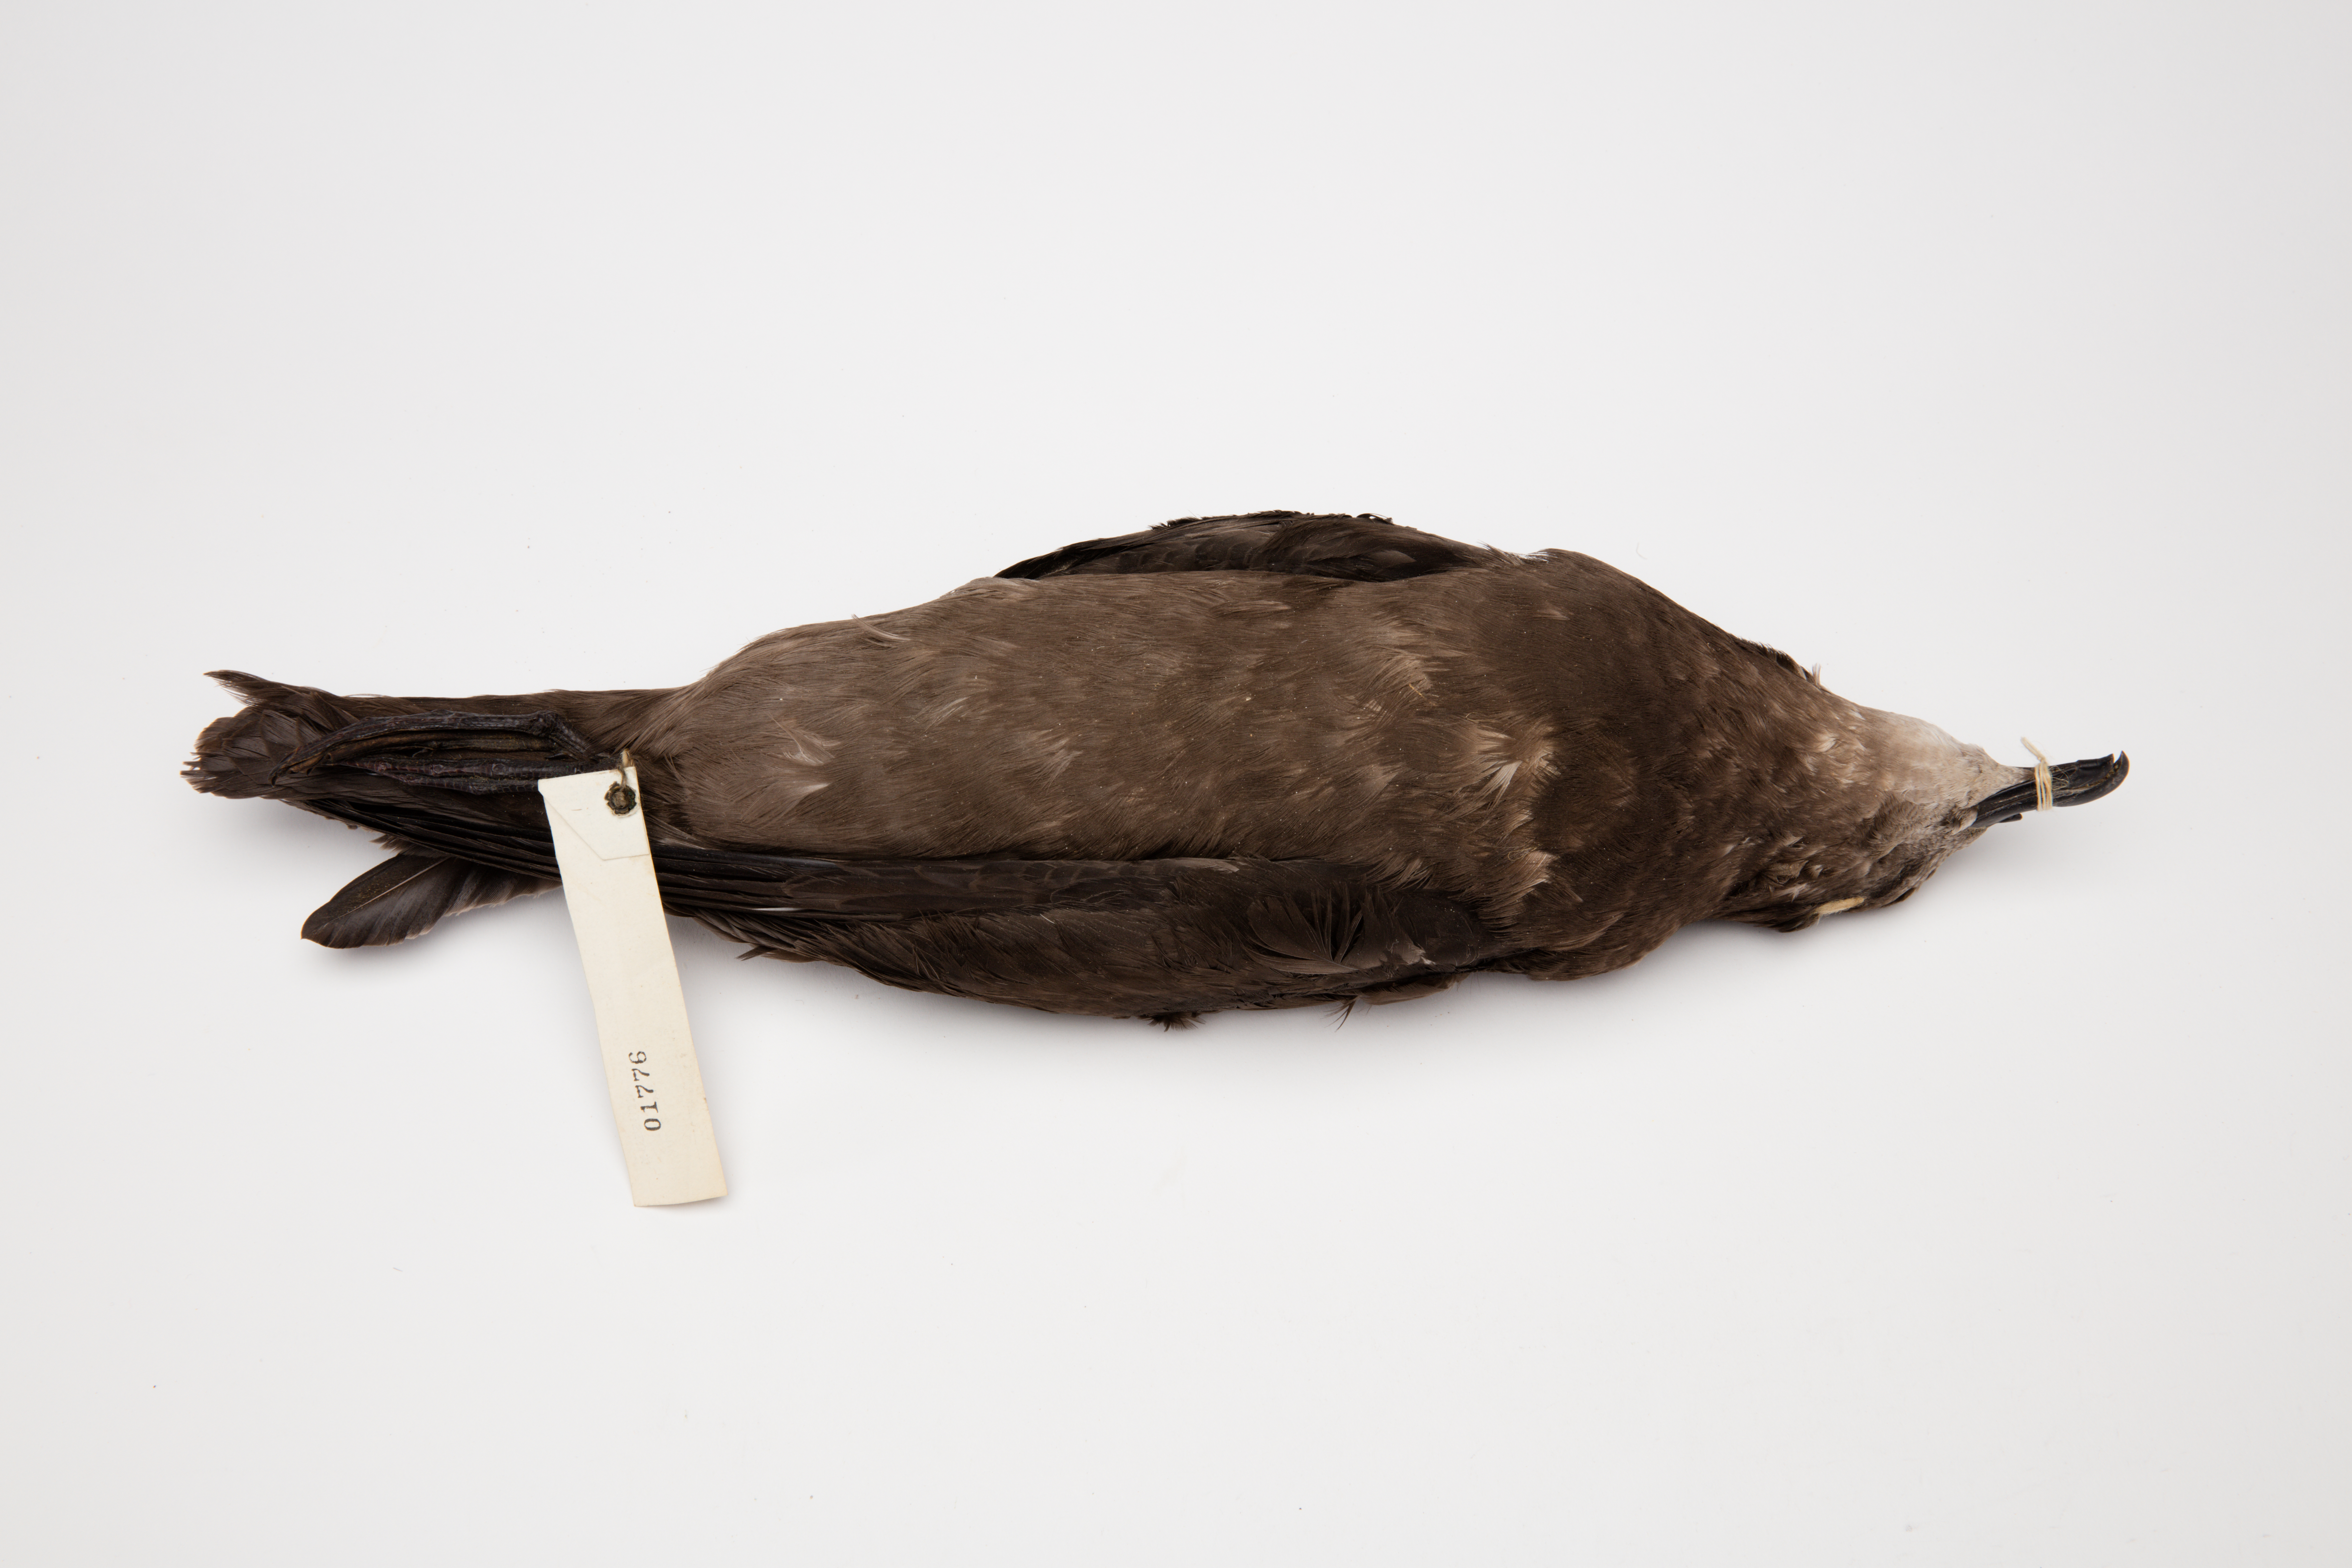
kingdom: Animalia
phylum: Chordata
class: Aves
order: Procellariiformes
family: Procellariidae
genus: Pterodroma
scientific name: Pterodroma macroptera
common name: Great-winged petrel
